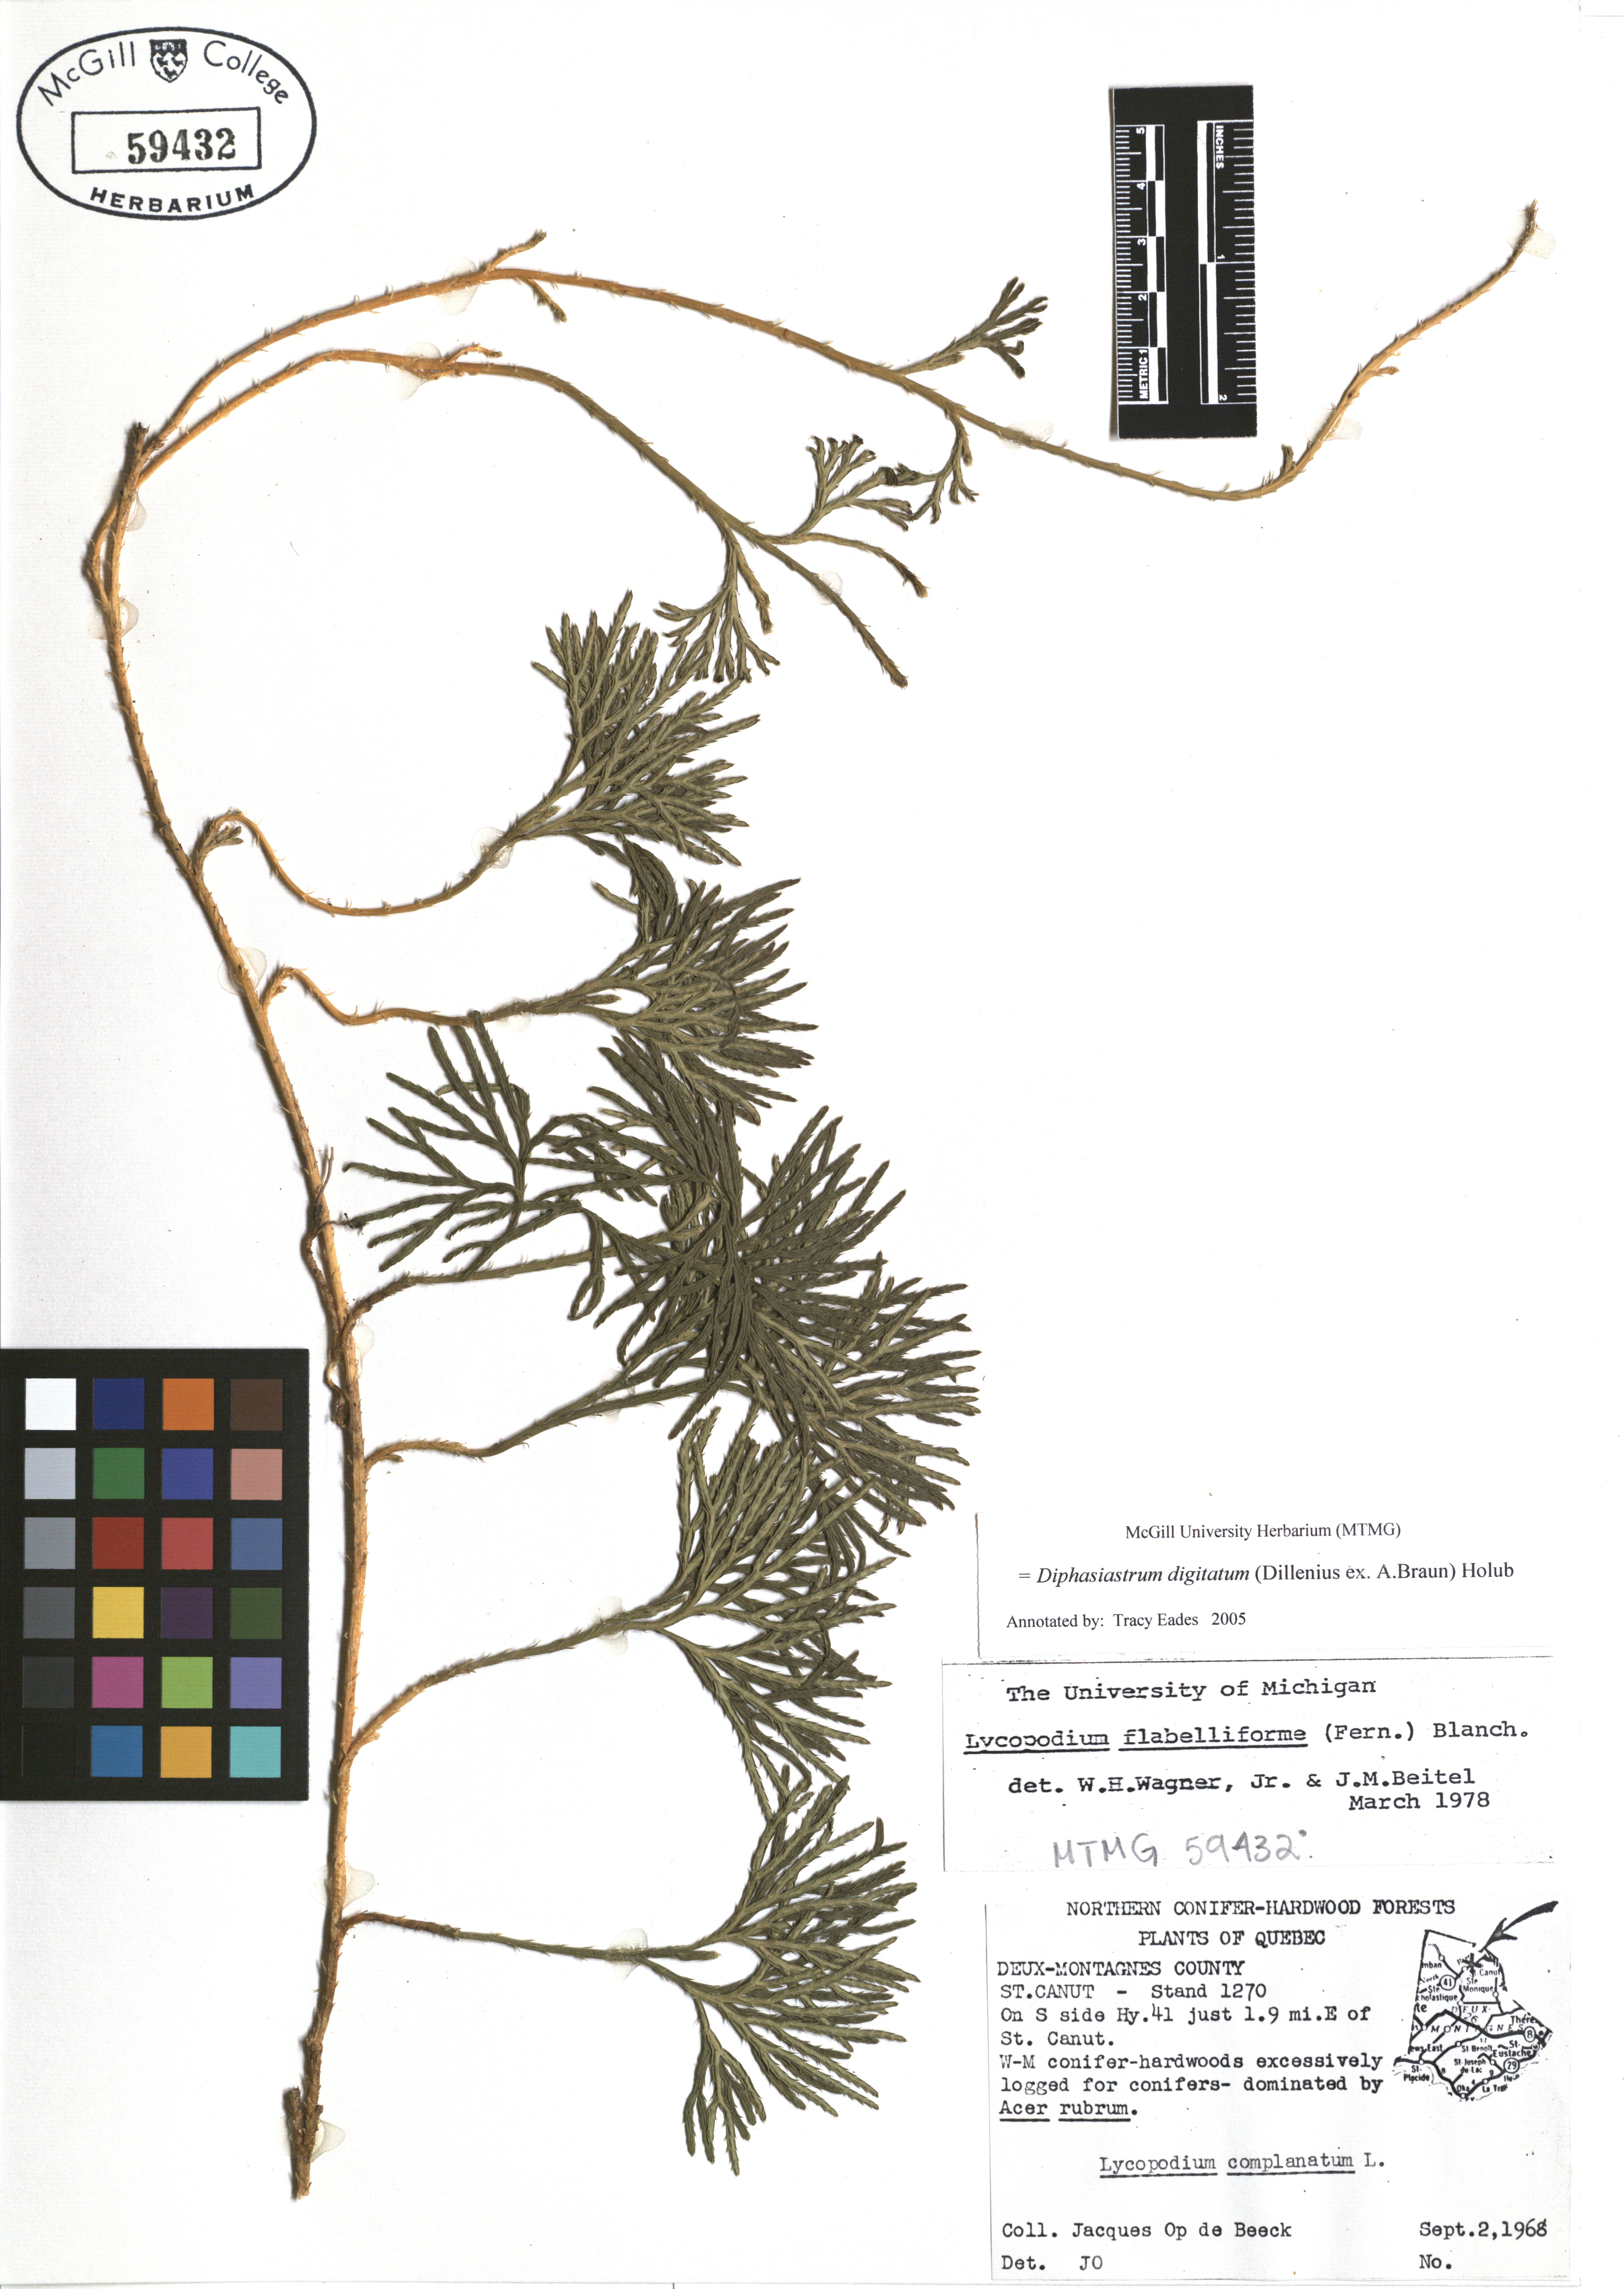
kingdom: Plantae
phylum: Tracheophyta
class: Lycopodiopsida
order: Lycopodiales
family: Lycopodiaceae
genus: Diphasiastrum
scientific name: Diphasiastrum digitatum
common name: Southern running-pine
